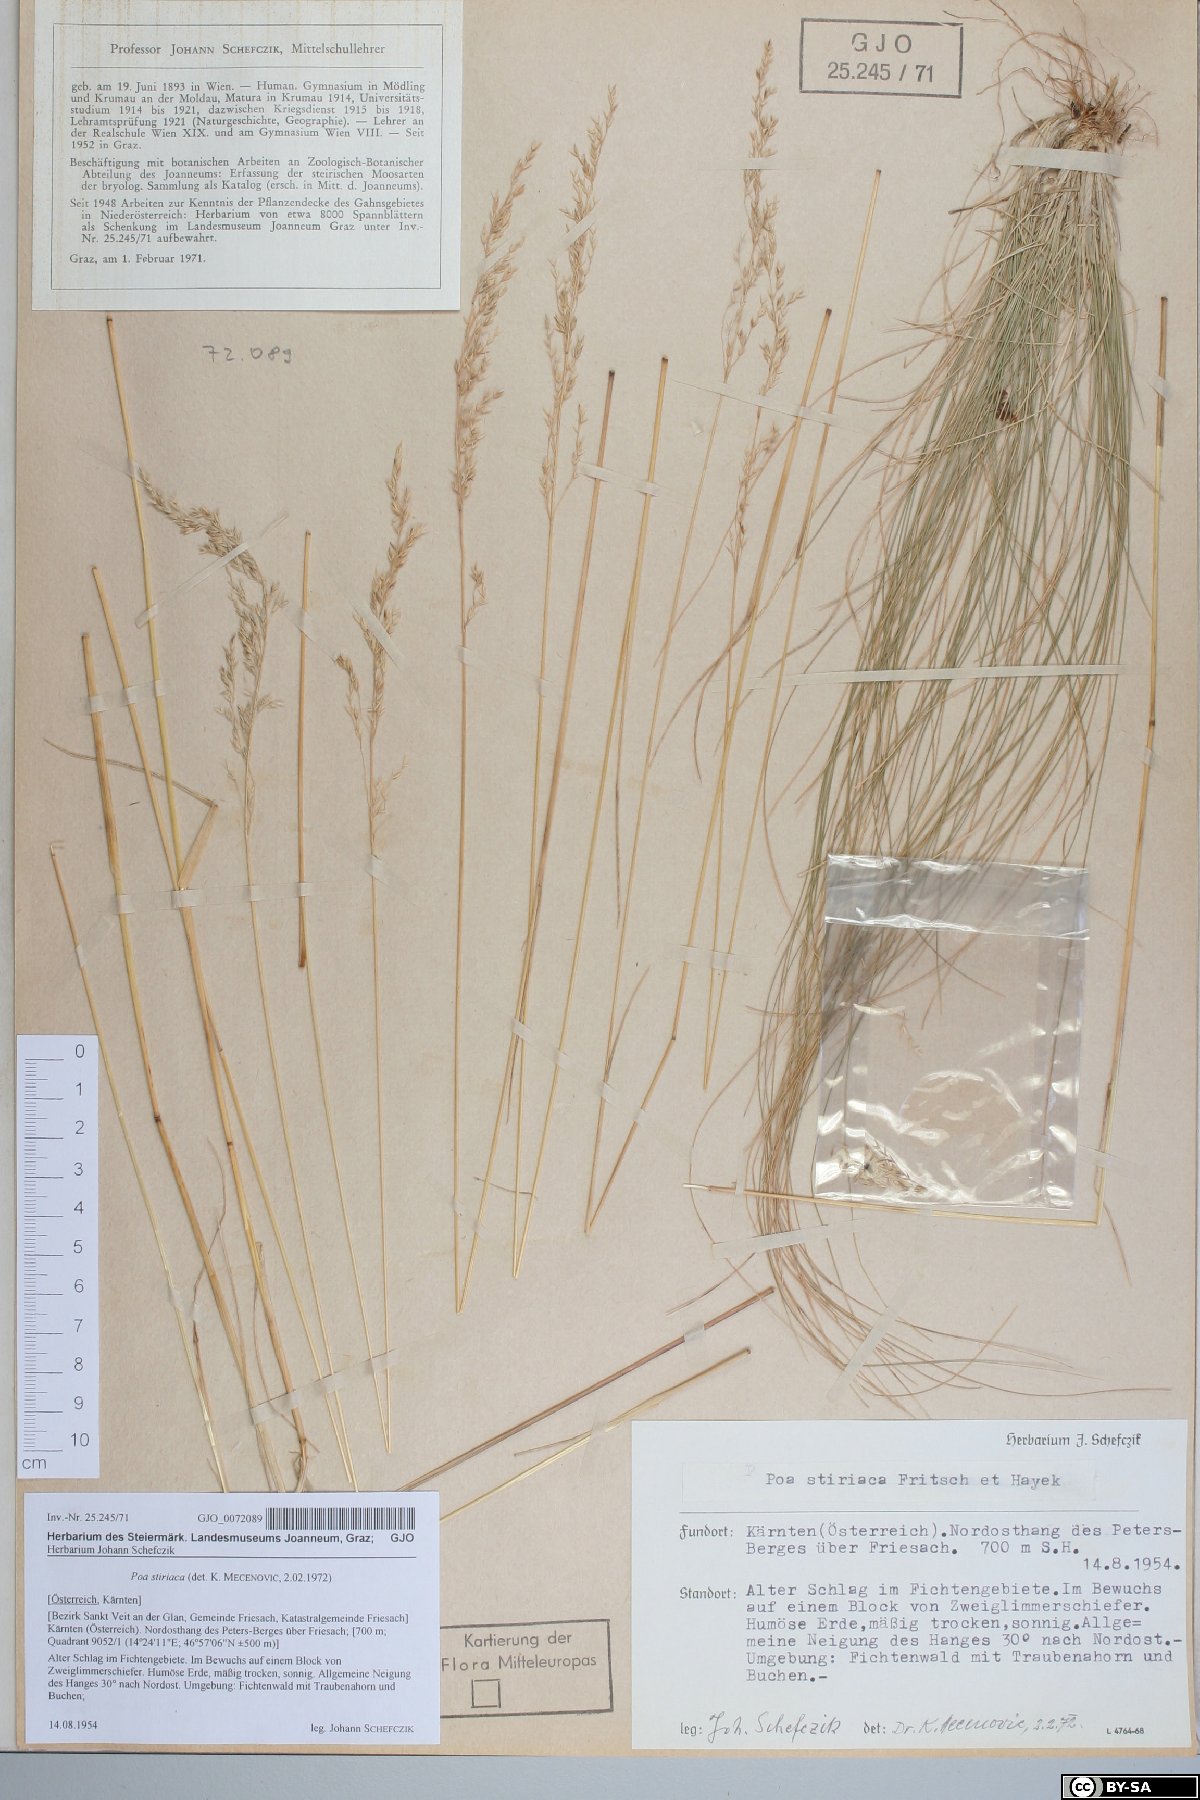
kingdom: Plantae
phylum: Tracheophyta
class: Liliopsida
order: Poales
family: Poaceae
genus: Poa
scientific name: Poa stiriaca
